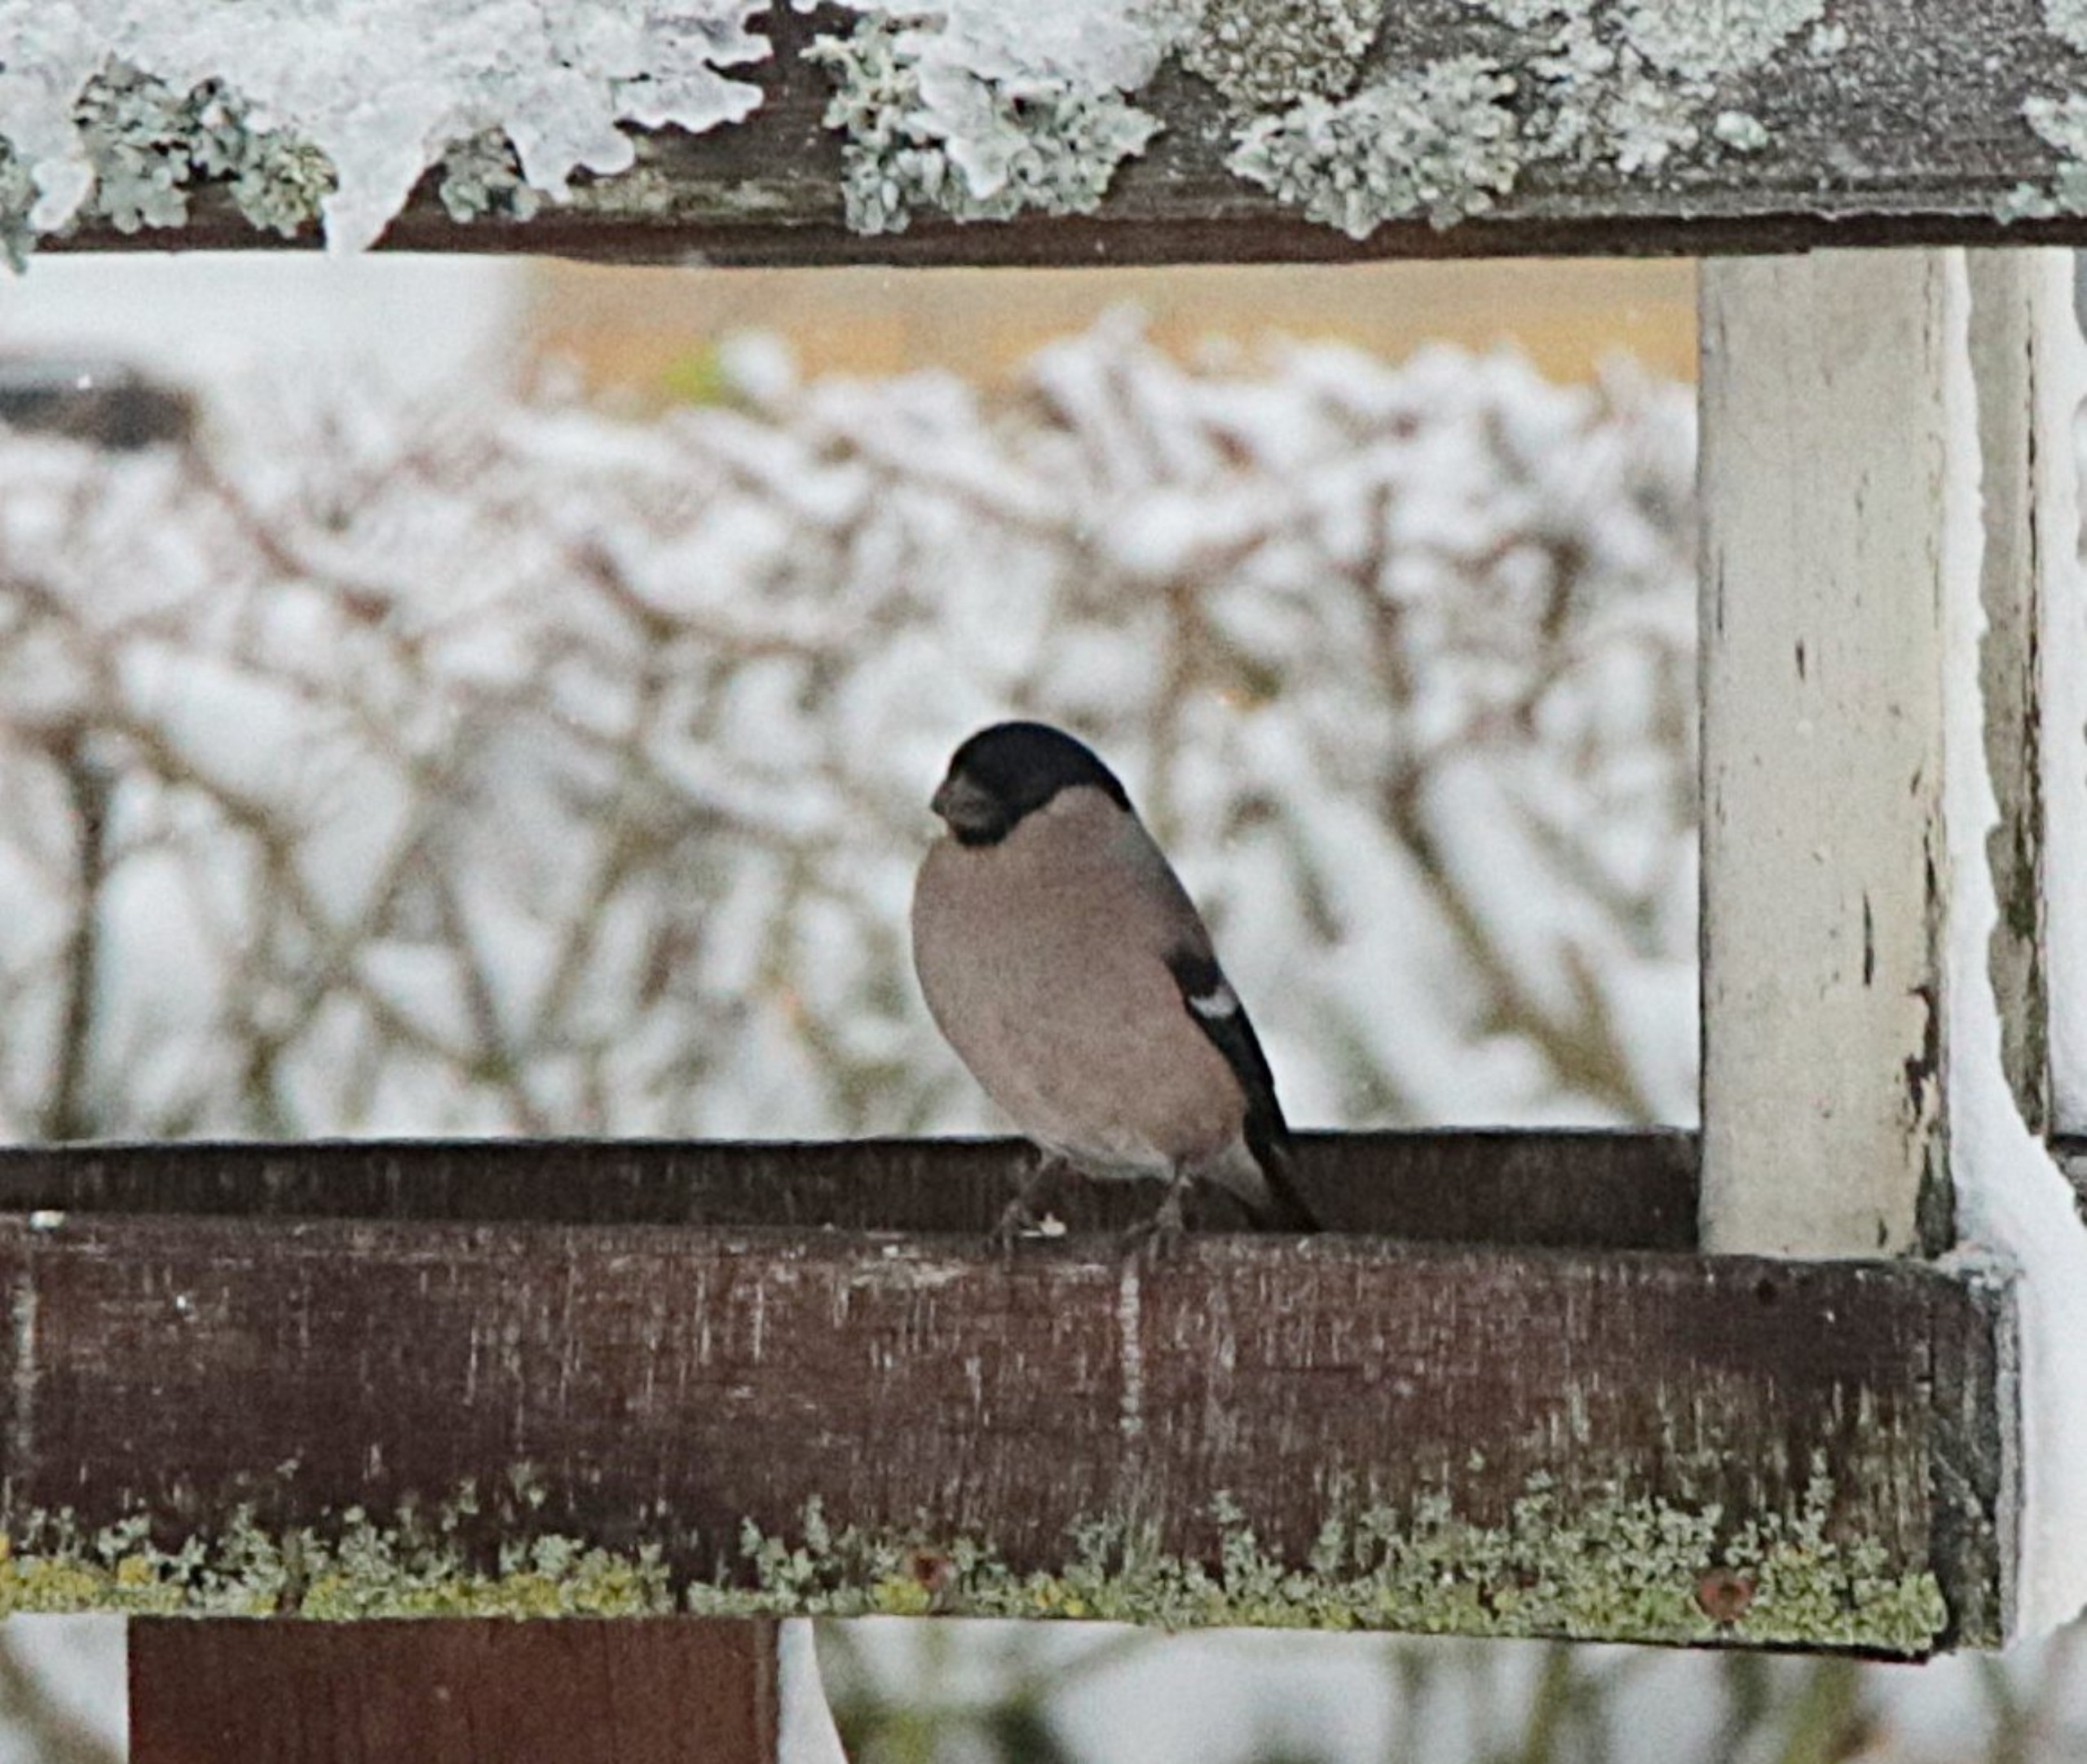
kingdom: Animalia
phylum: Chordata
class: Aves
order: Passeriformes
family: Fringillidae
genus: Pyrrhula
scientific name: Pyrrhula pyrrhula
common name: Dompap
